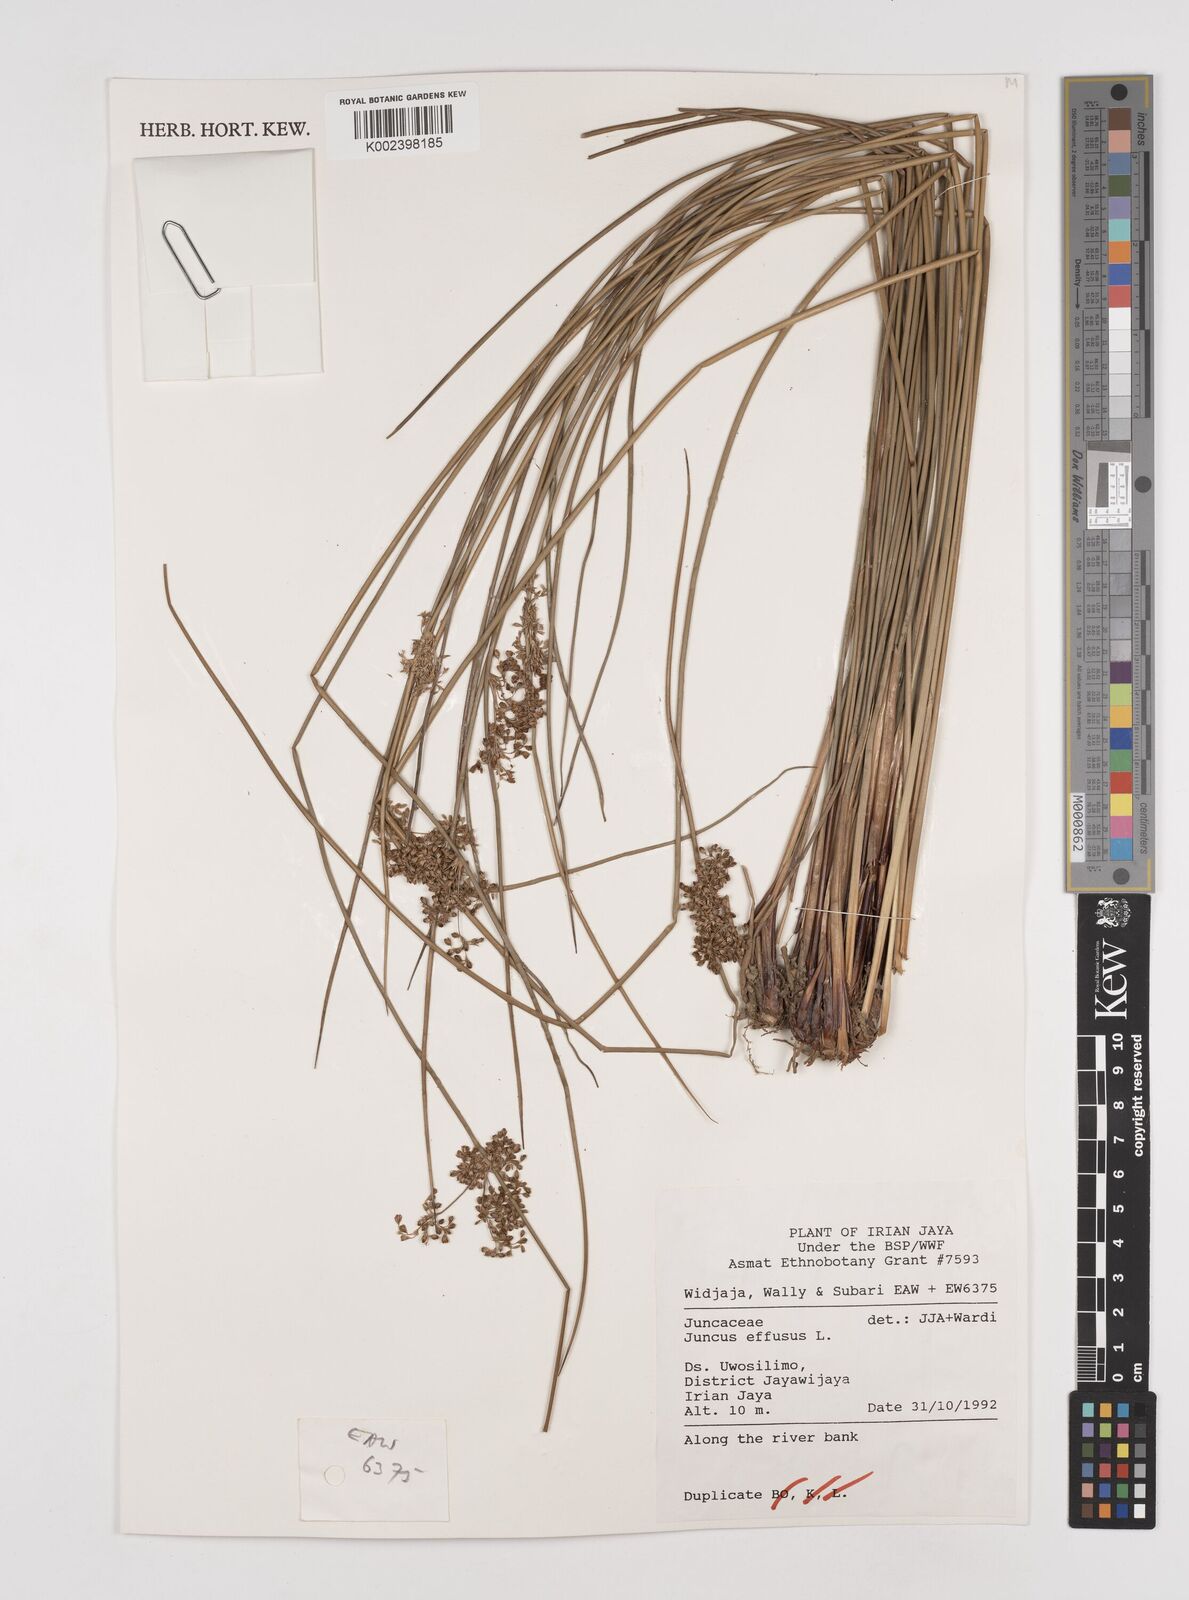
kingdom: Plantae
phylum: Tracheophyta
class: Liliopsida
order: Poales
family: Juncaceae
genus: Juncus
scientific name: Juncus decipiens
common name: Lamp rush
